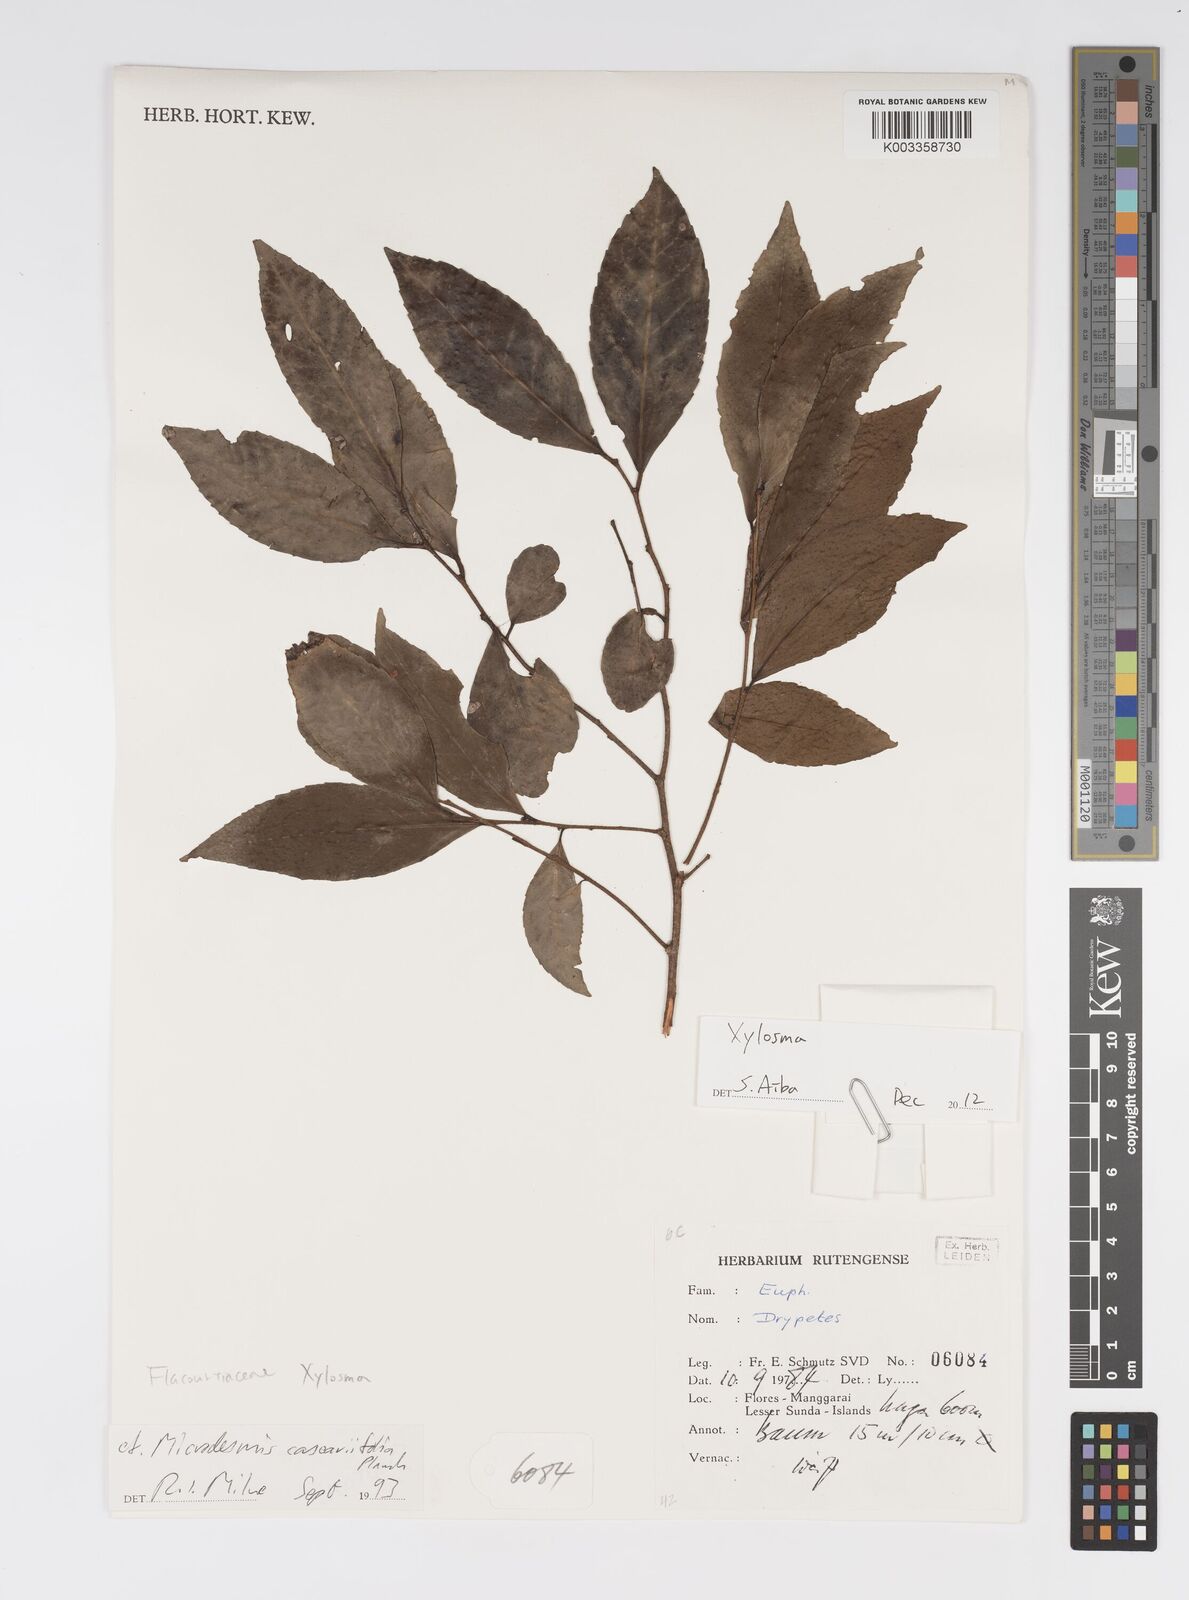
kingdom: Plantae
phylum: Tracheophyta
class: Magnoliopsida
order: Malpighiales
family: Salicaceae
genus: Xylosma
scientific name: Xylosma
